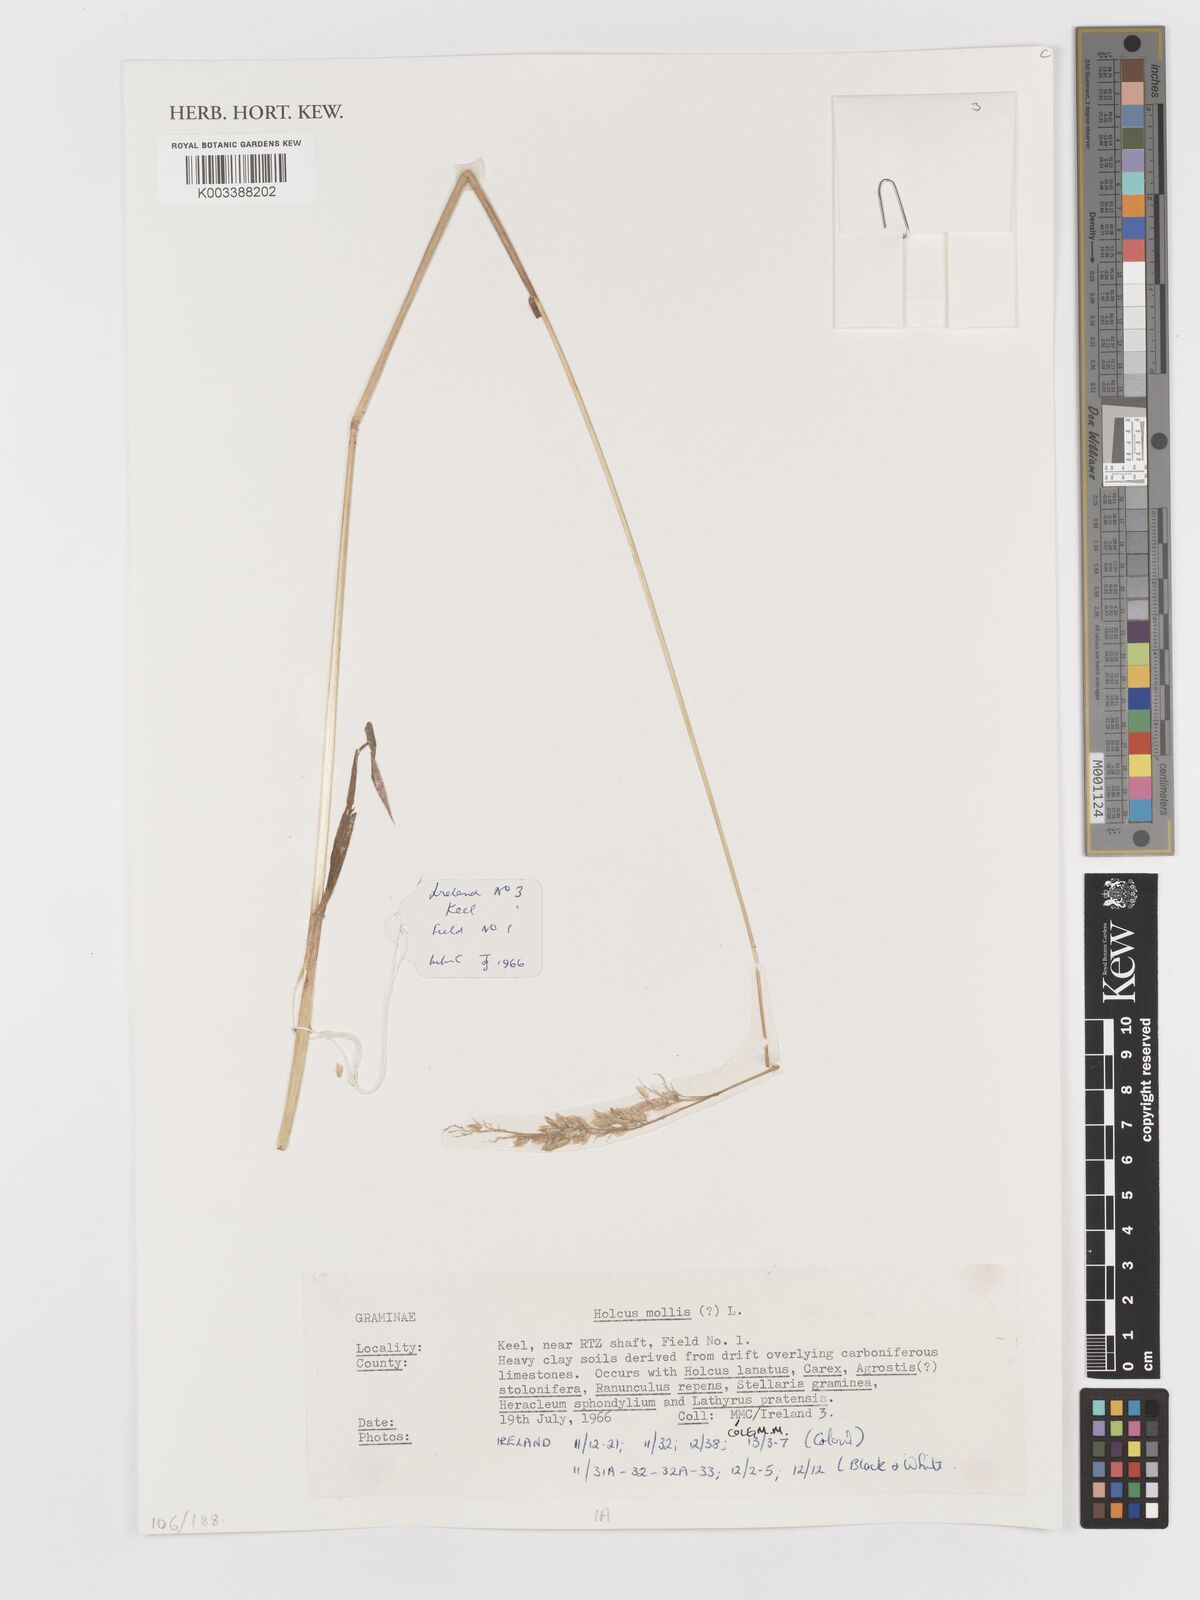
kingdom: Plantae
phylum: Tracheophyta
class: Liliopsida
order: Poales
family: Poaceae
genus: Holcus
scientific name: Holcus mollis
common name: Creeping velvetgrass
